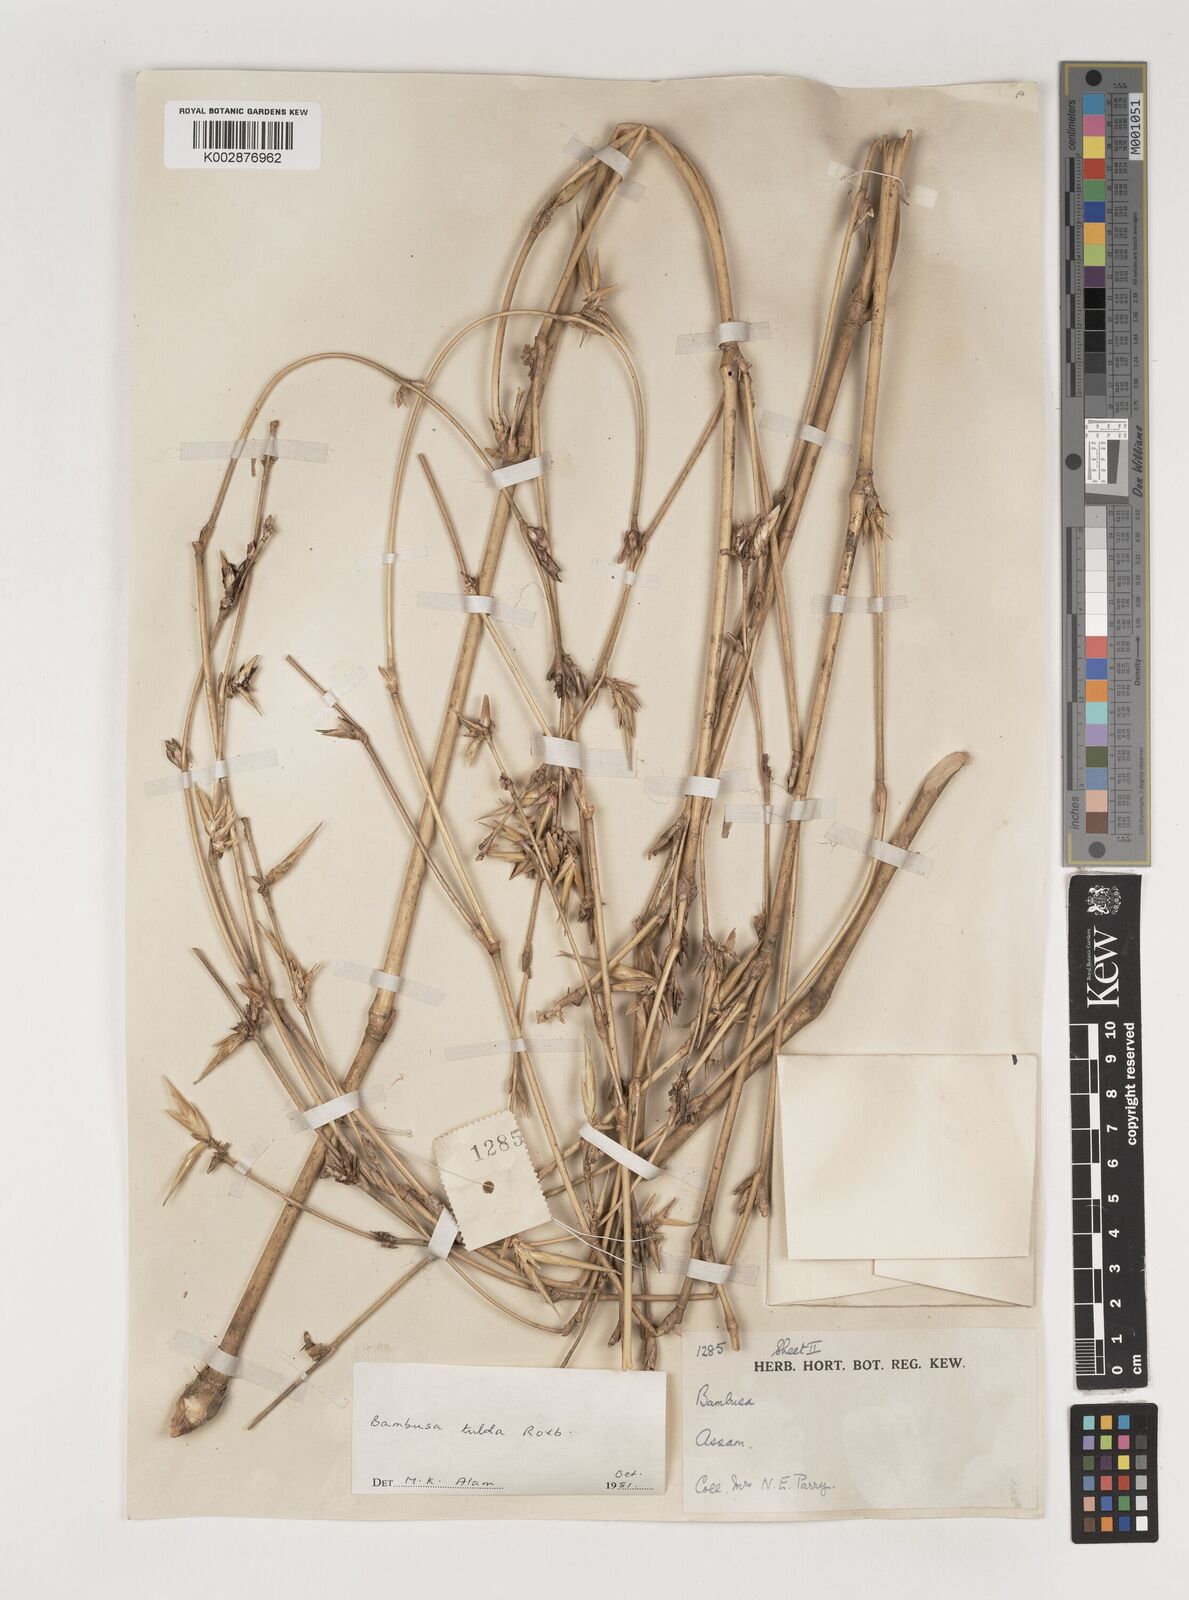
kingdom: Plantae
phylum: Tracheophyta
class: Liliopsida
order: Poales
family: Poaceae
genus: Bambusa
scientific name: Bambusa tulda
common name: Bengal bamboo
